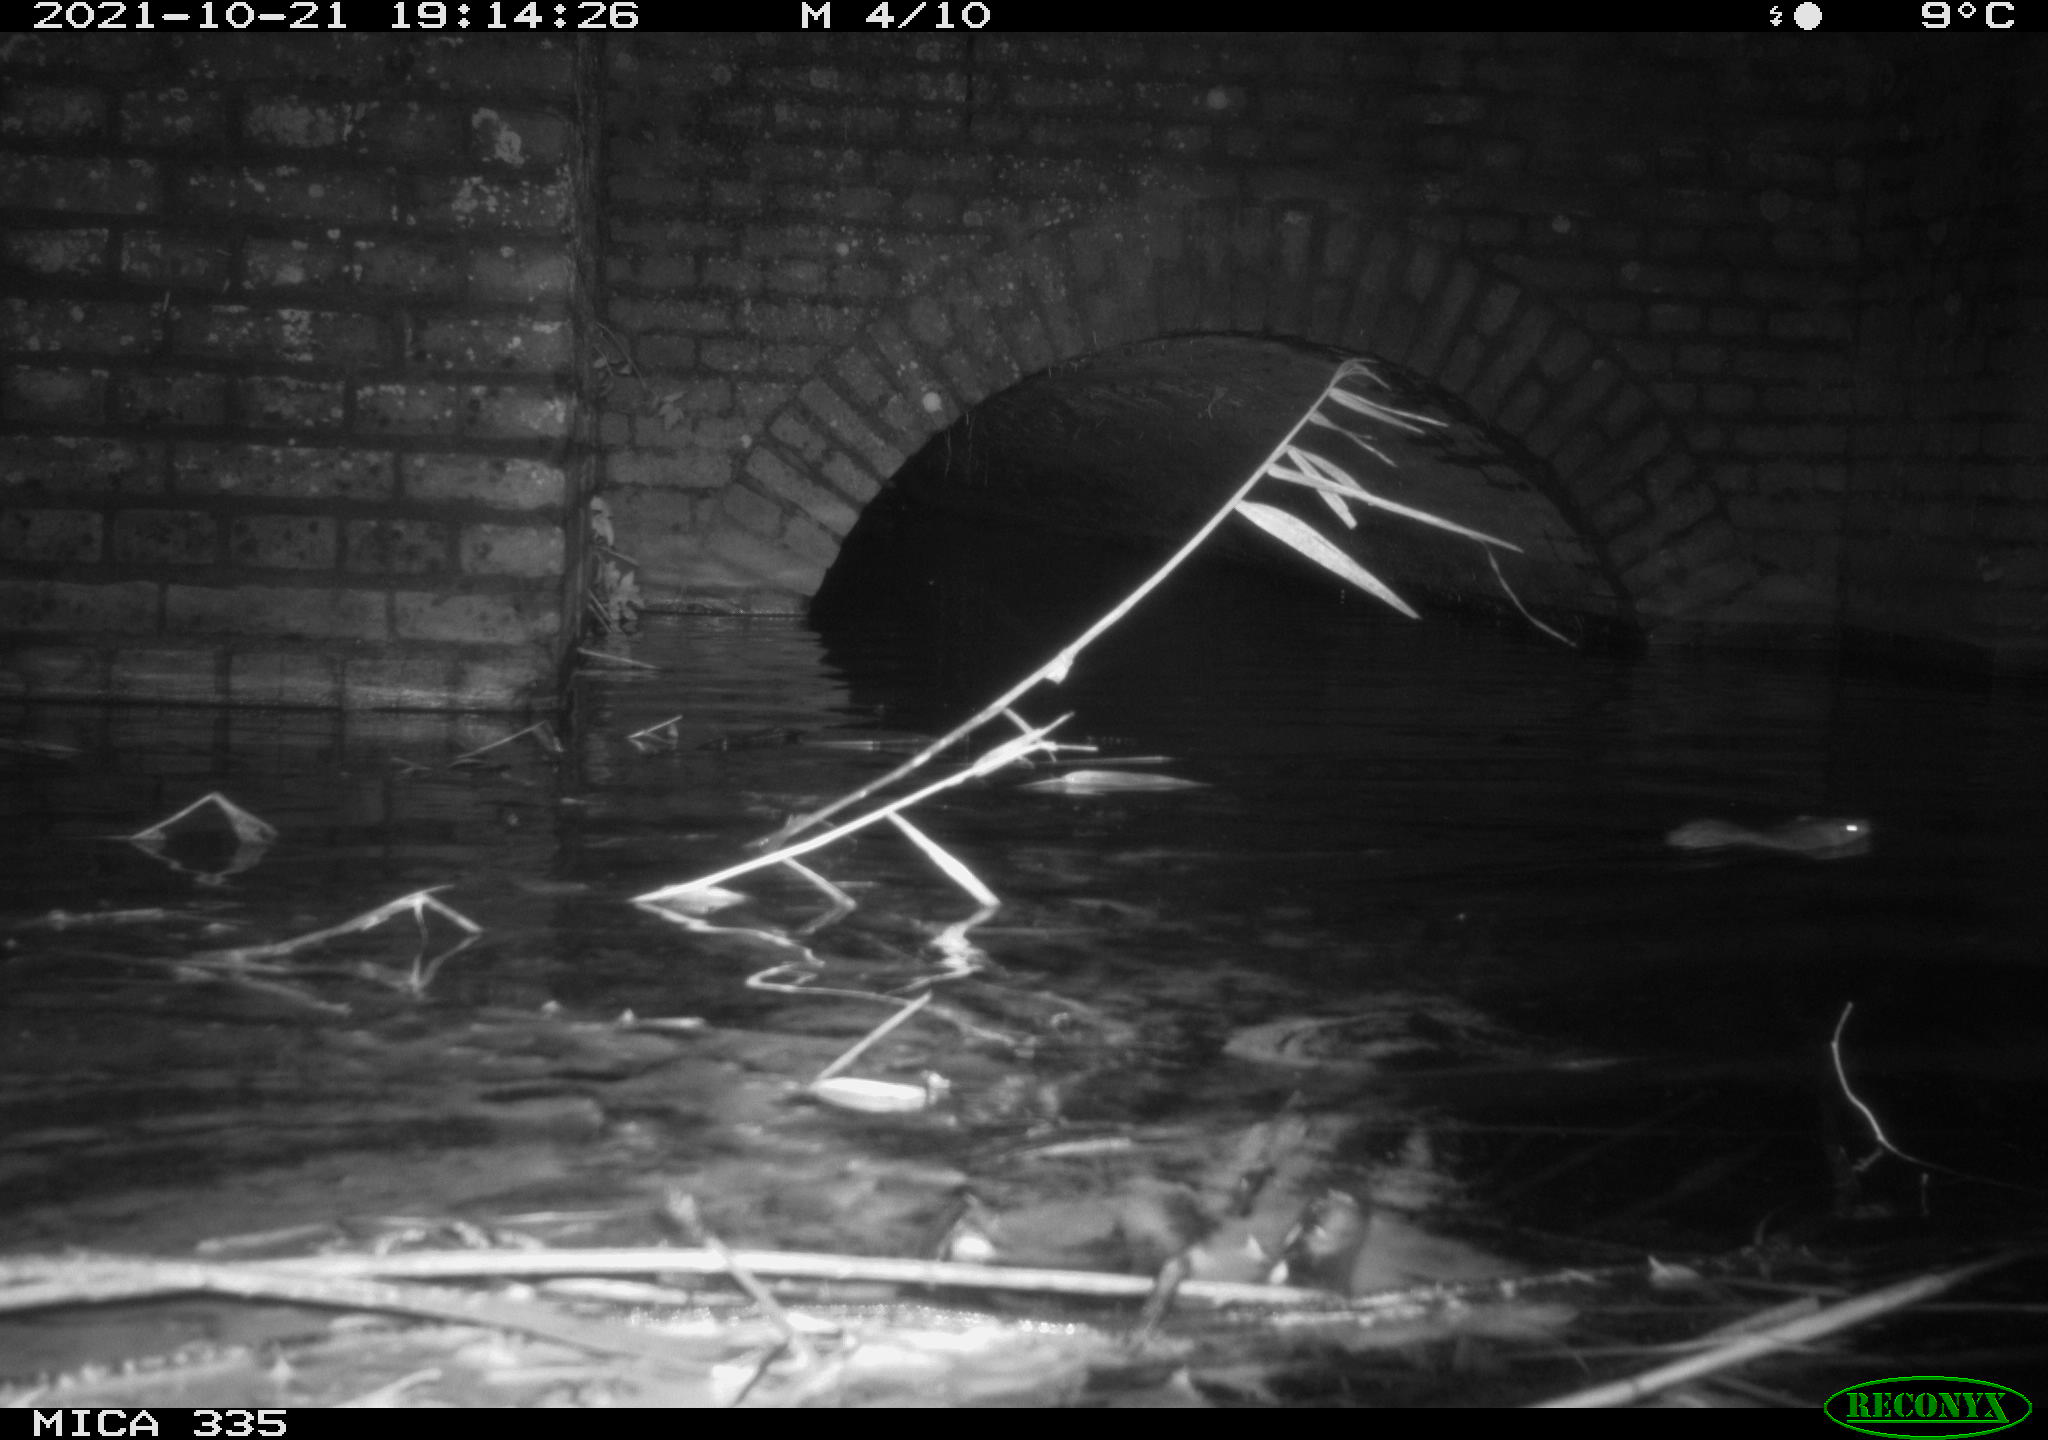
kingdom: Animalia
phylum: Chordata
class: Mammalia
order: Rodentia
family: Muridae
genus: Rattus
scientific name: Rattus norvegicus
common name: Brown rat
